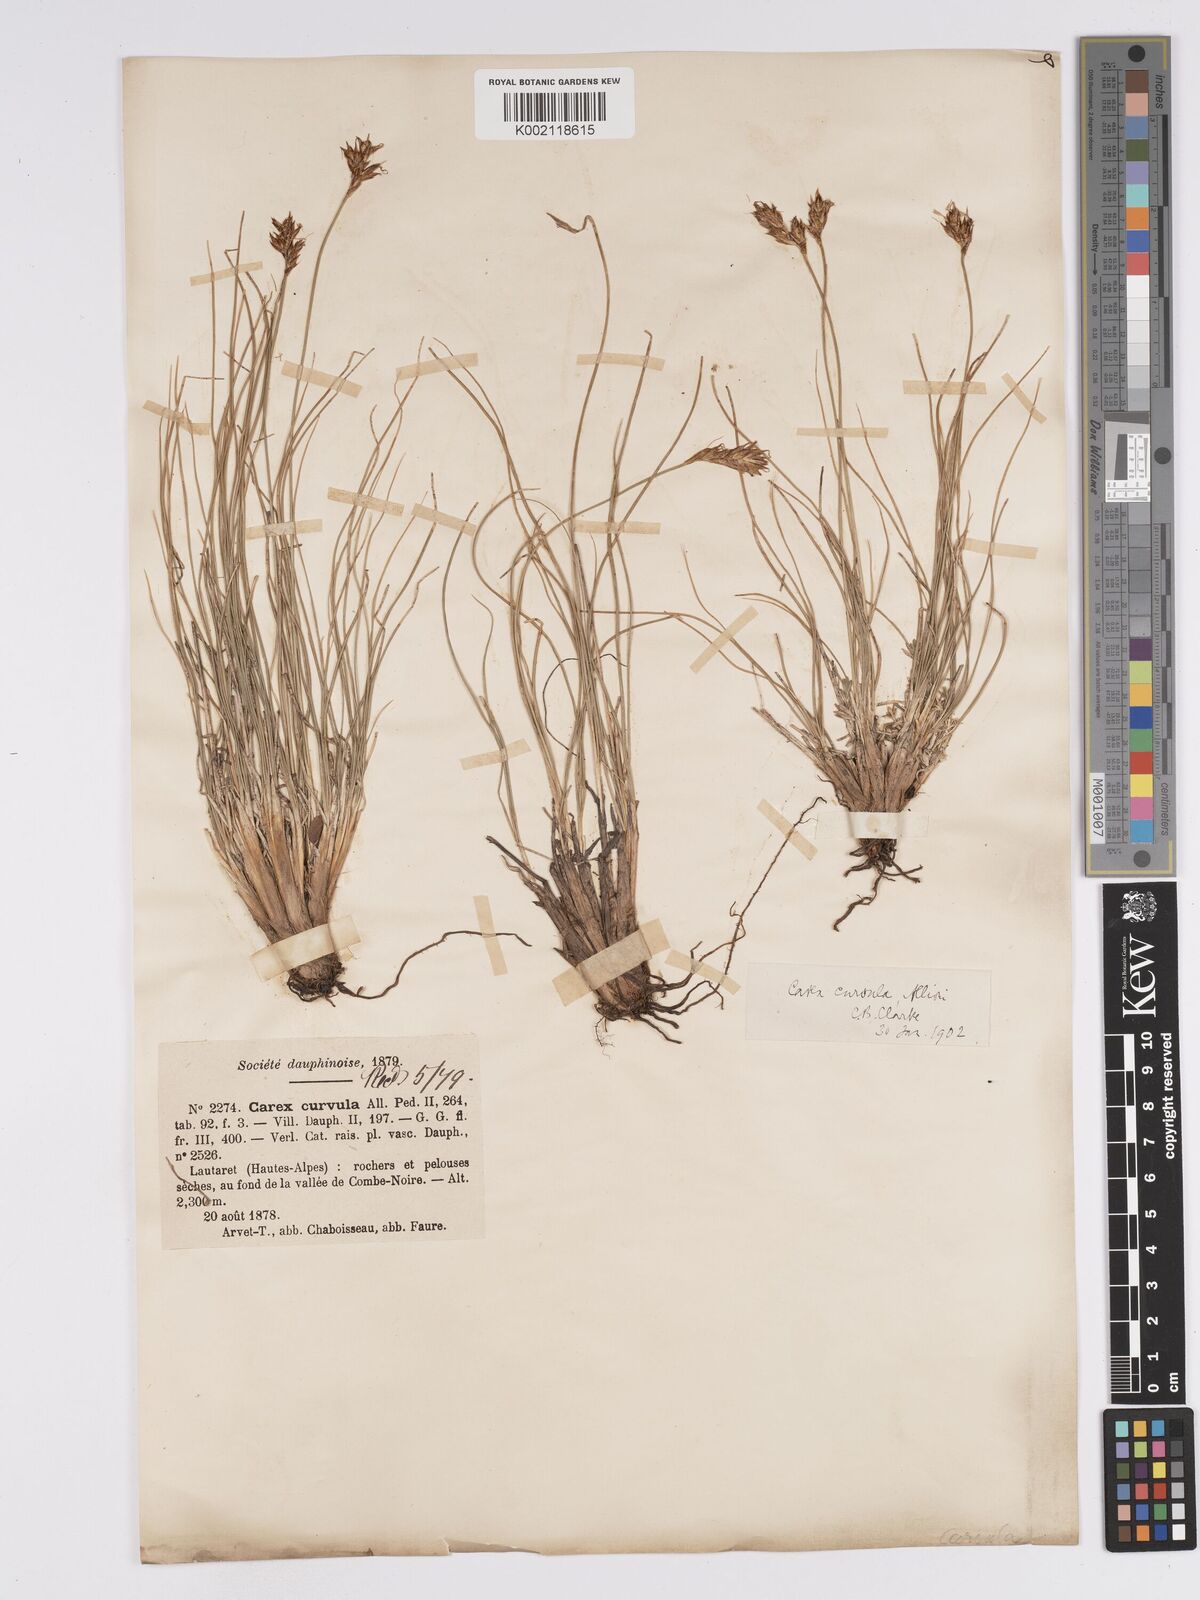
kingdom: Plantae
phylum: Tracheophyta
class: Liliopsida
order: Poales
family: Cyperaceae
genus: Carex
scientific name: Carex curvula
